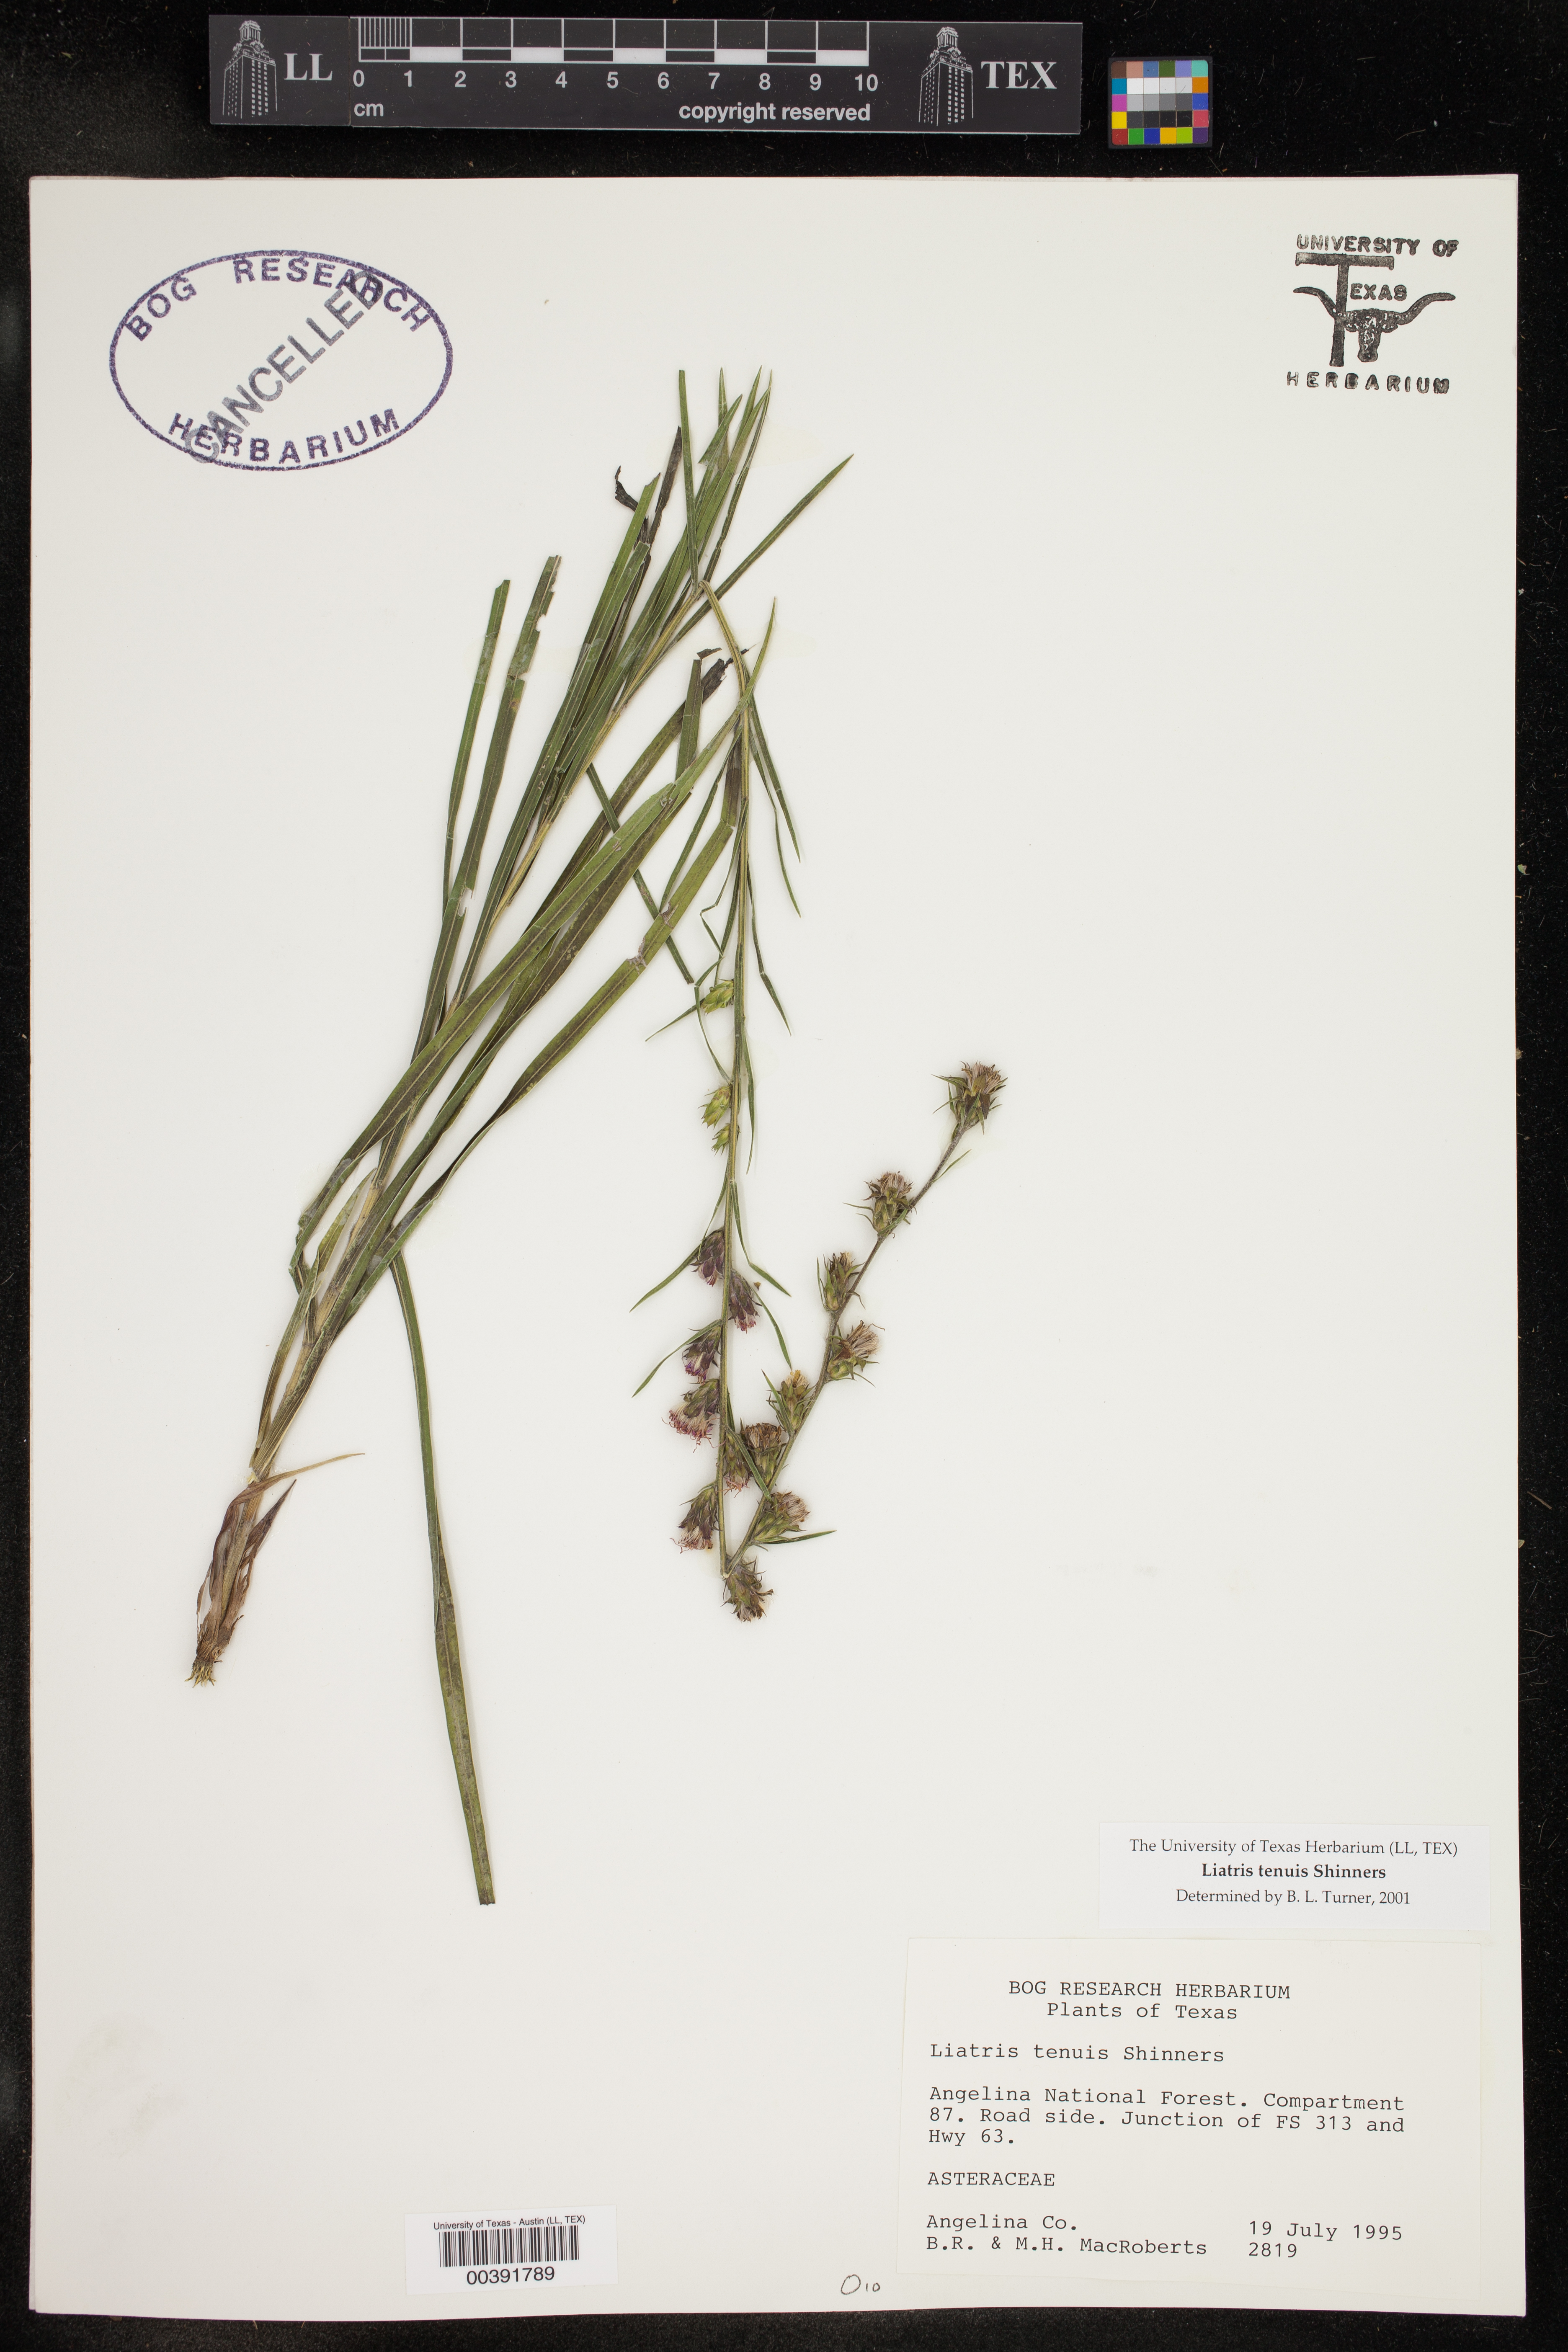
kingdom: Plantae
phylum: Tracheophyta
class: Magnoliopsida
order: Asterales
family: Asteraceae
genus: Liatris
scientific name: Liatris tenuis
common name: Shinner's gayfeather
